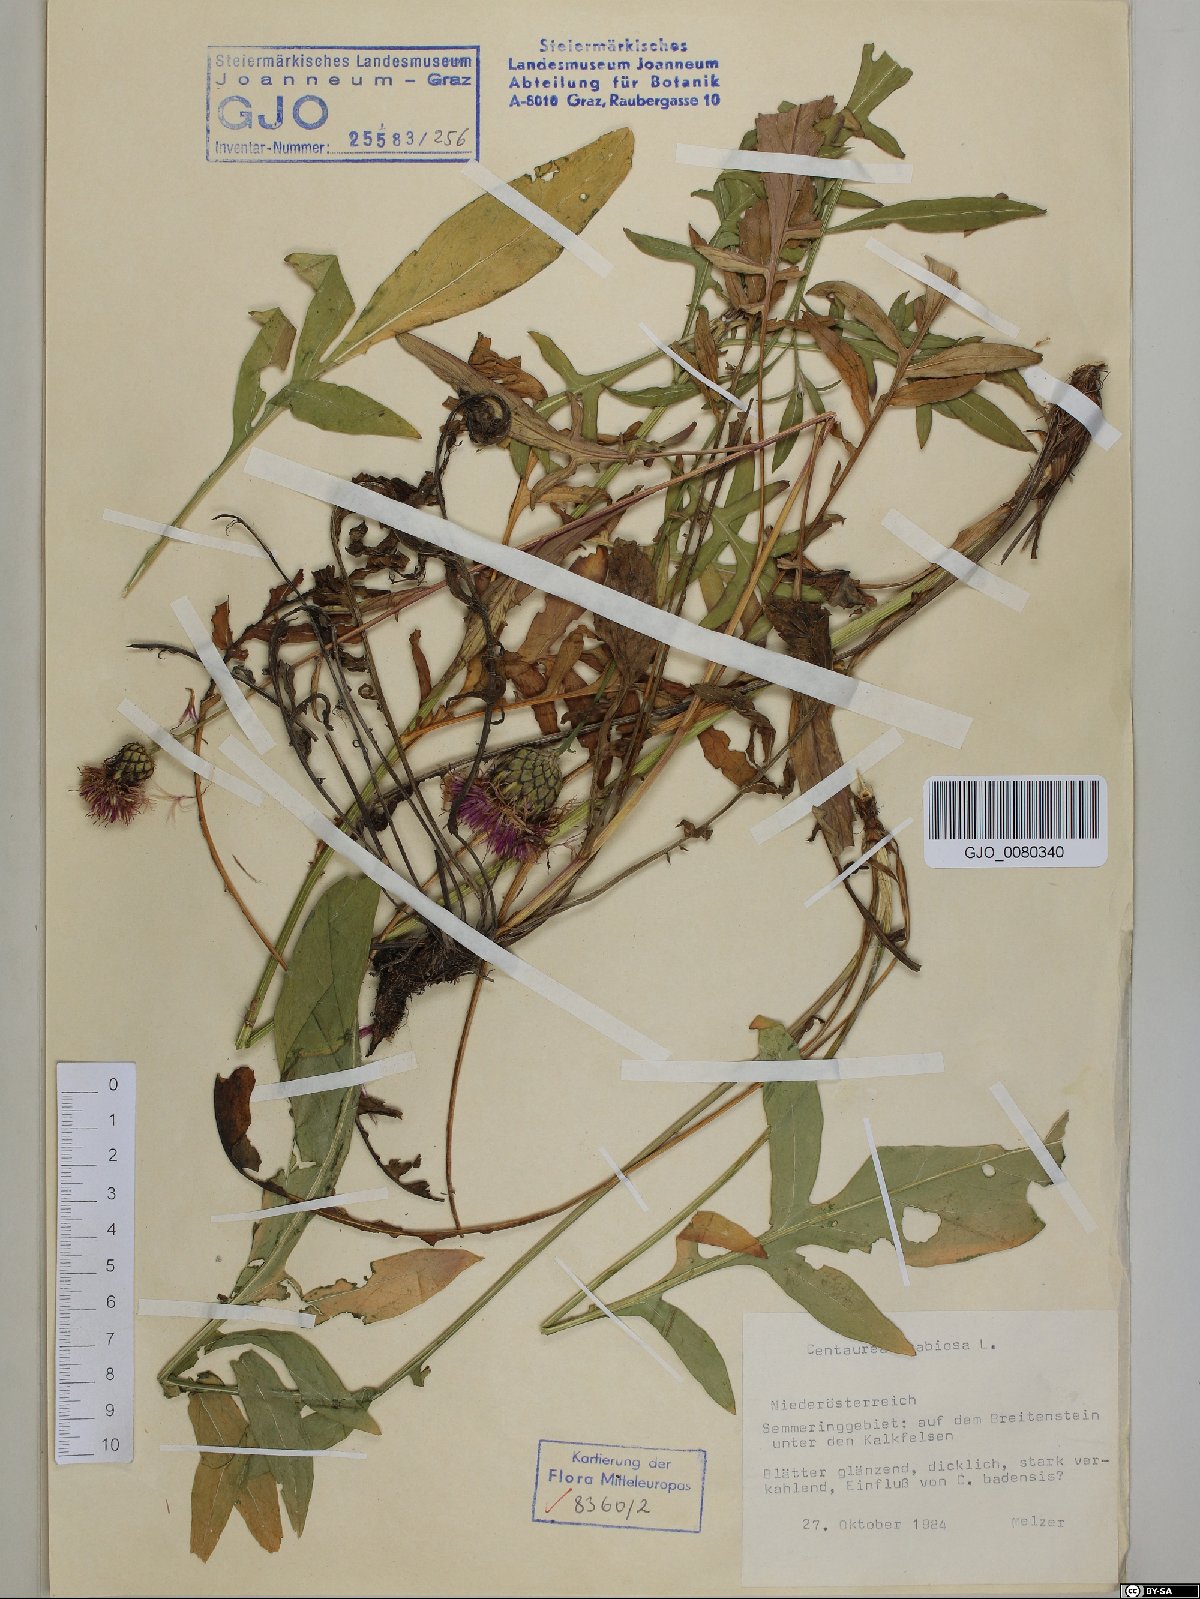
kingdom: Plantae
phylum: Tracheophyta
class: Magnoliopsida
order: Asterales
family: Asteraceae
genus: Centaurea
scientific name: Centaurea scabiosa
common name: Greater knapweed
